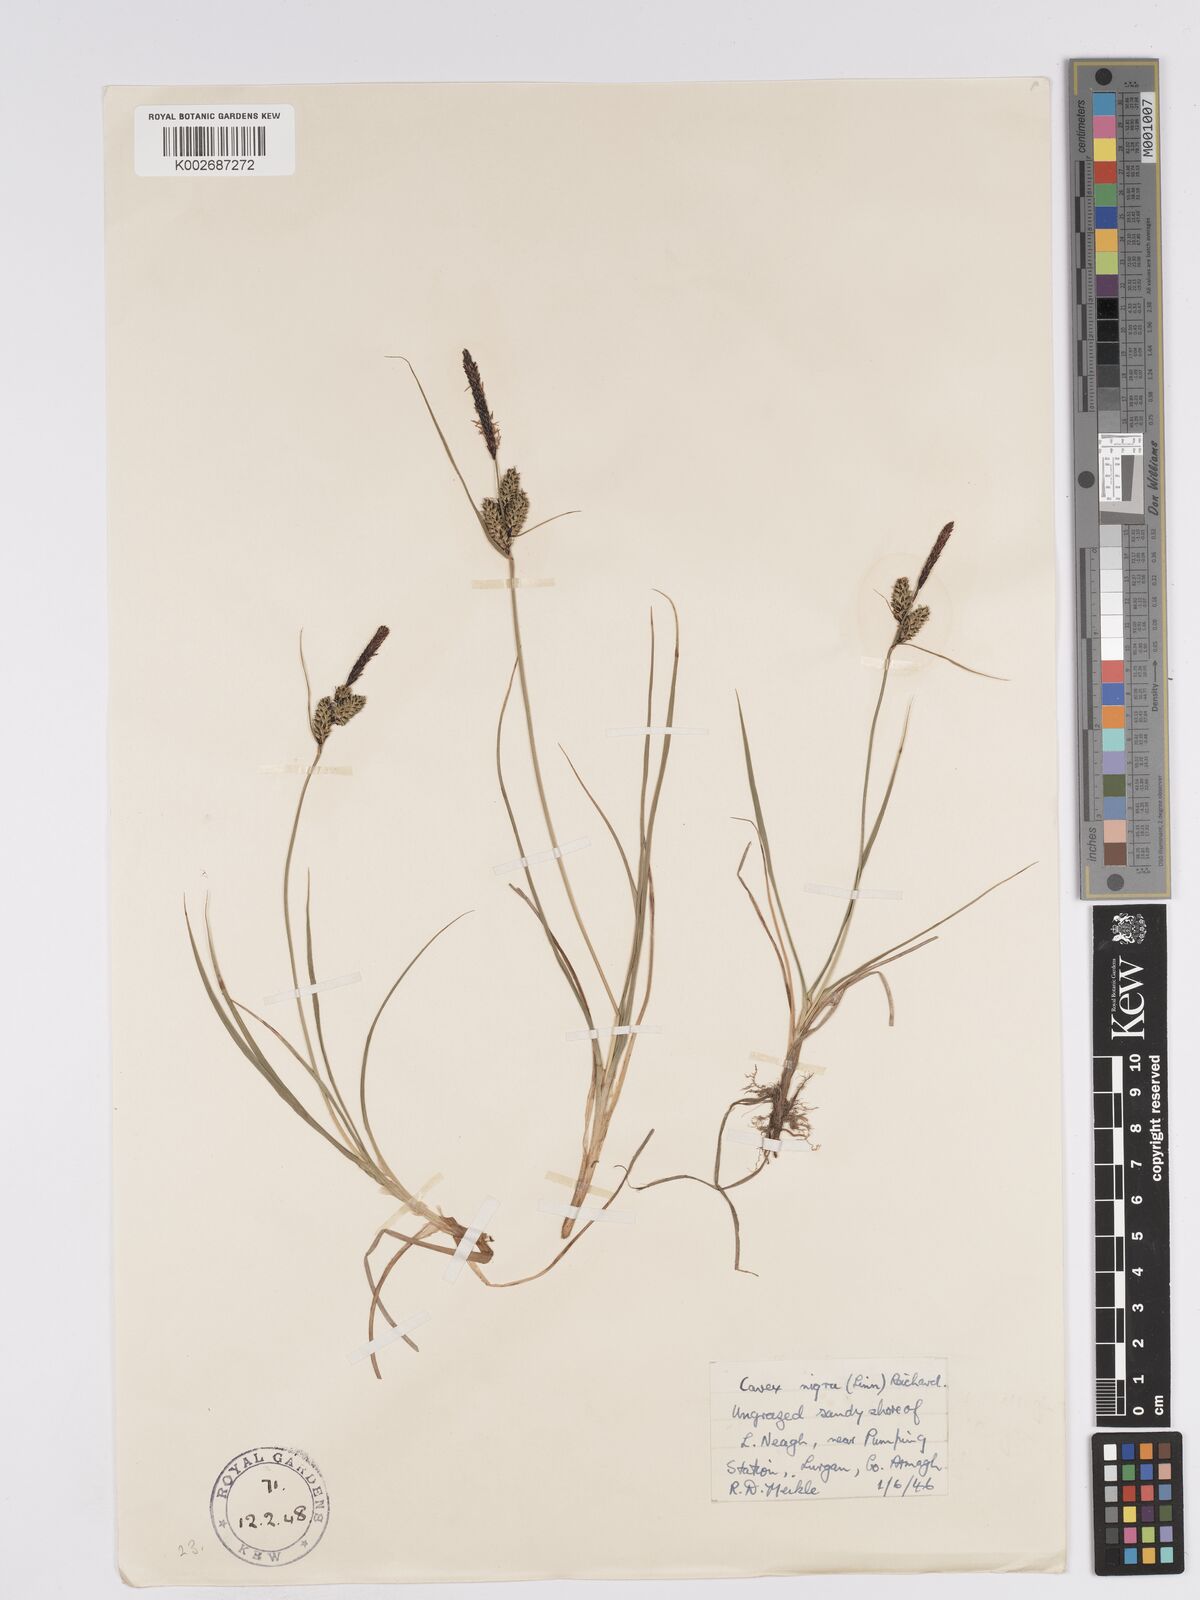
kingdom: Plantae
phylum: Tracheophyta
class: Liliopsida
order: Poales
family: Cyperaceae
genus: Carex
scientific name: Carex nigra
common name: Common sedge
